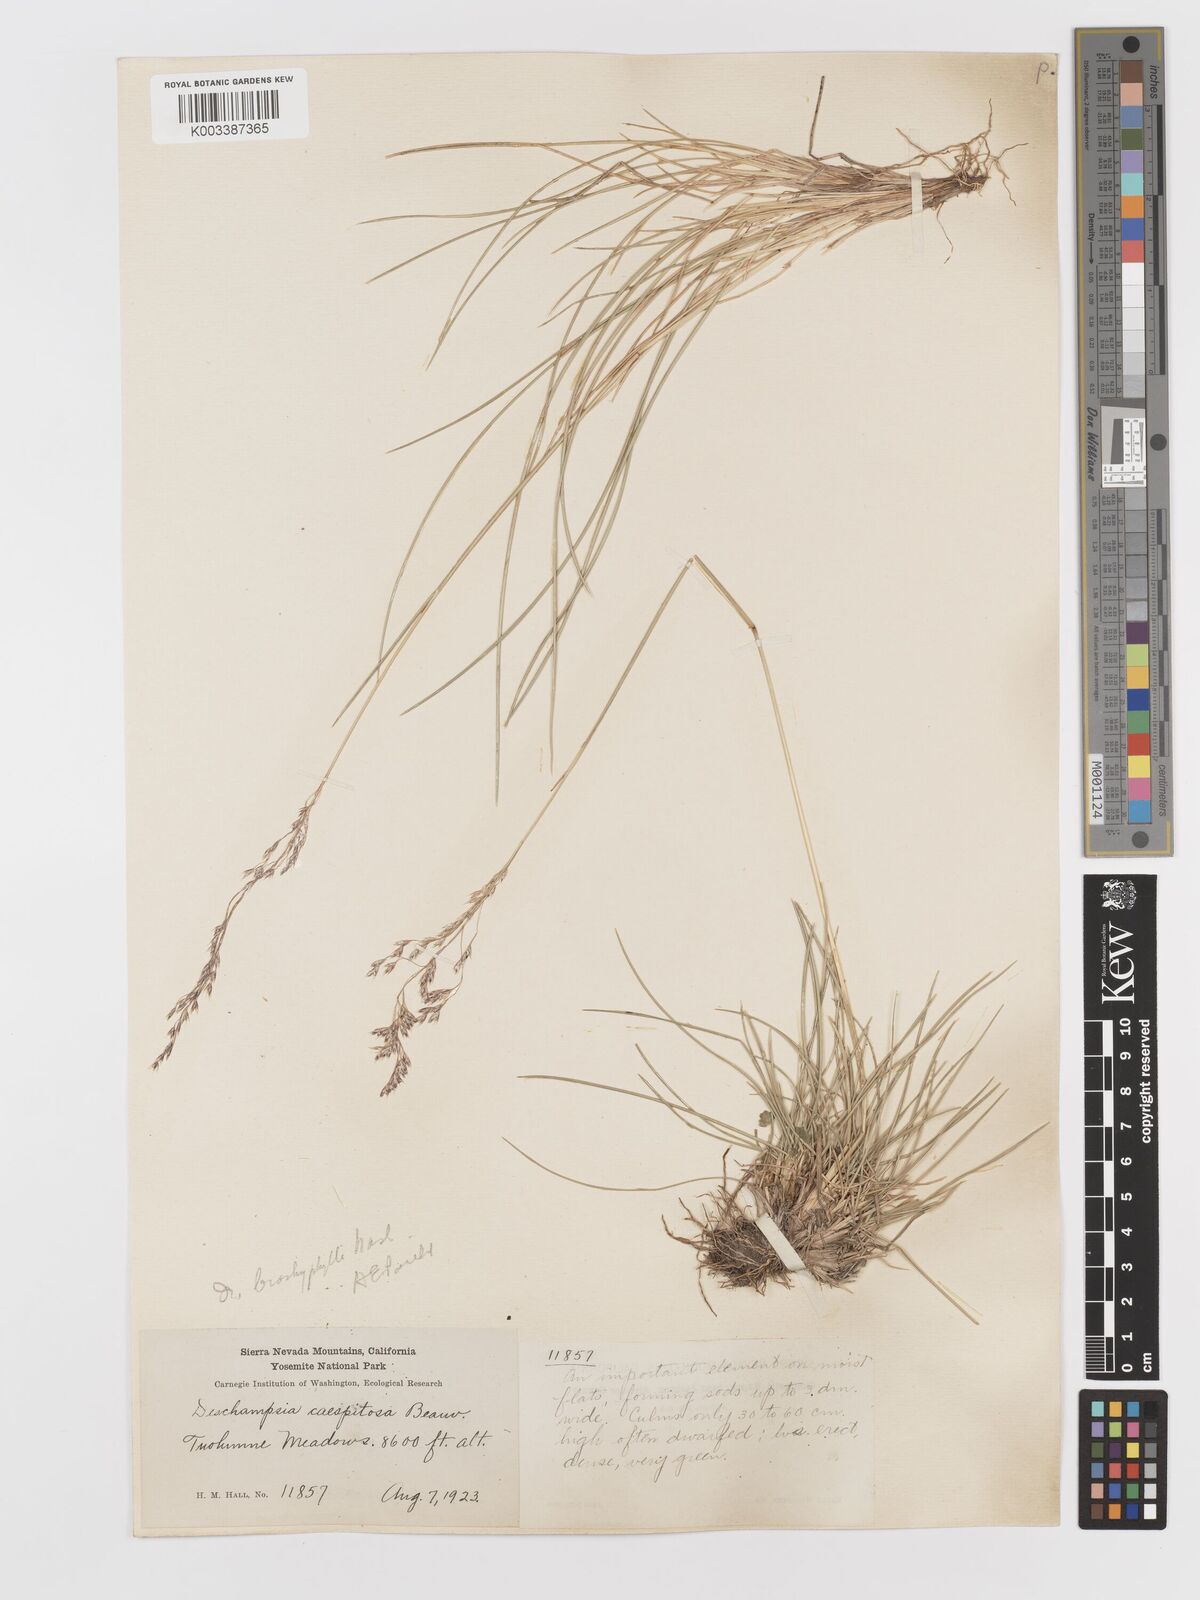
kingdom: Plantae
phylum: Tracheophyta
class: Liliopsida
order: Poales
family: Poaceae
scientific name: Poaceae
